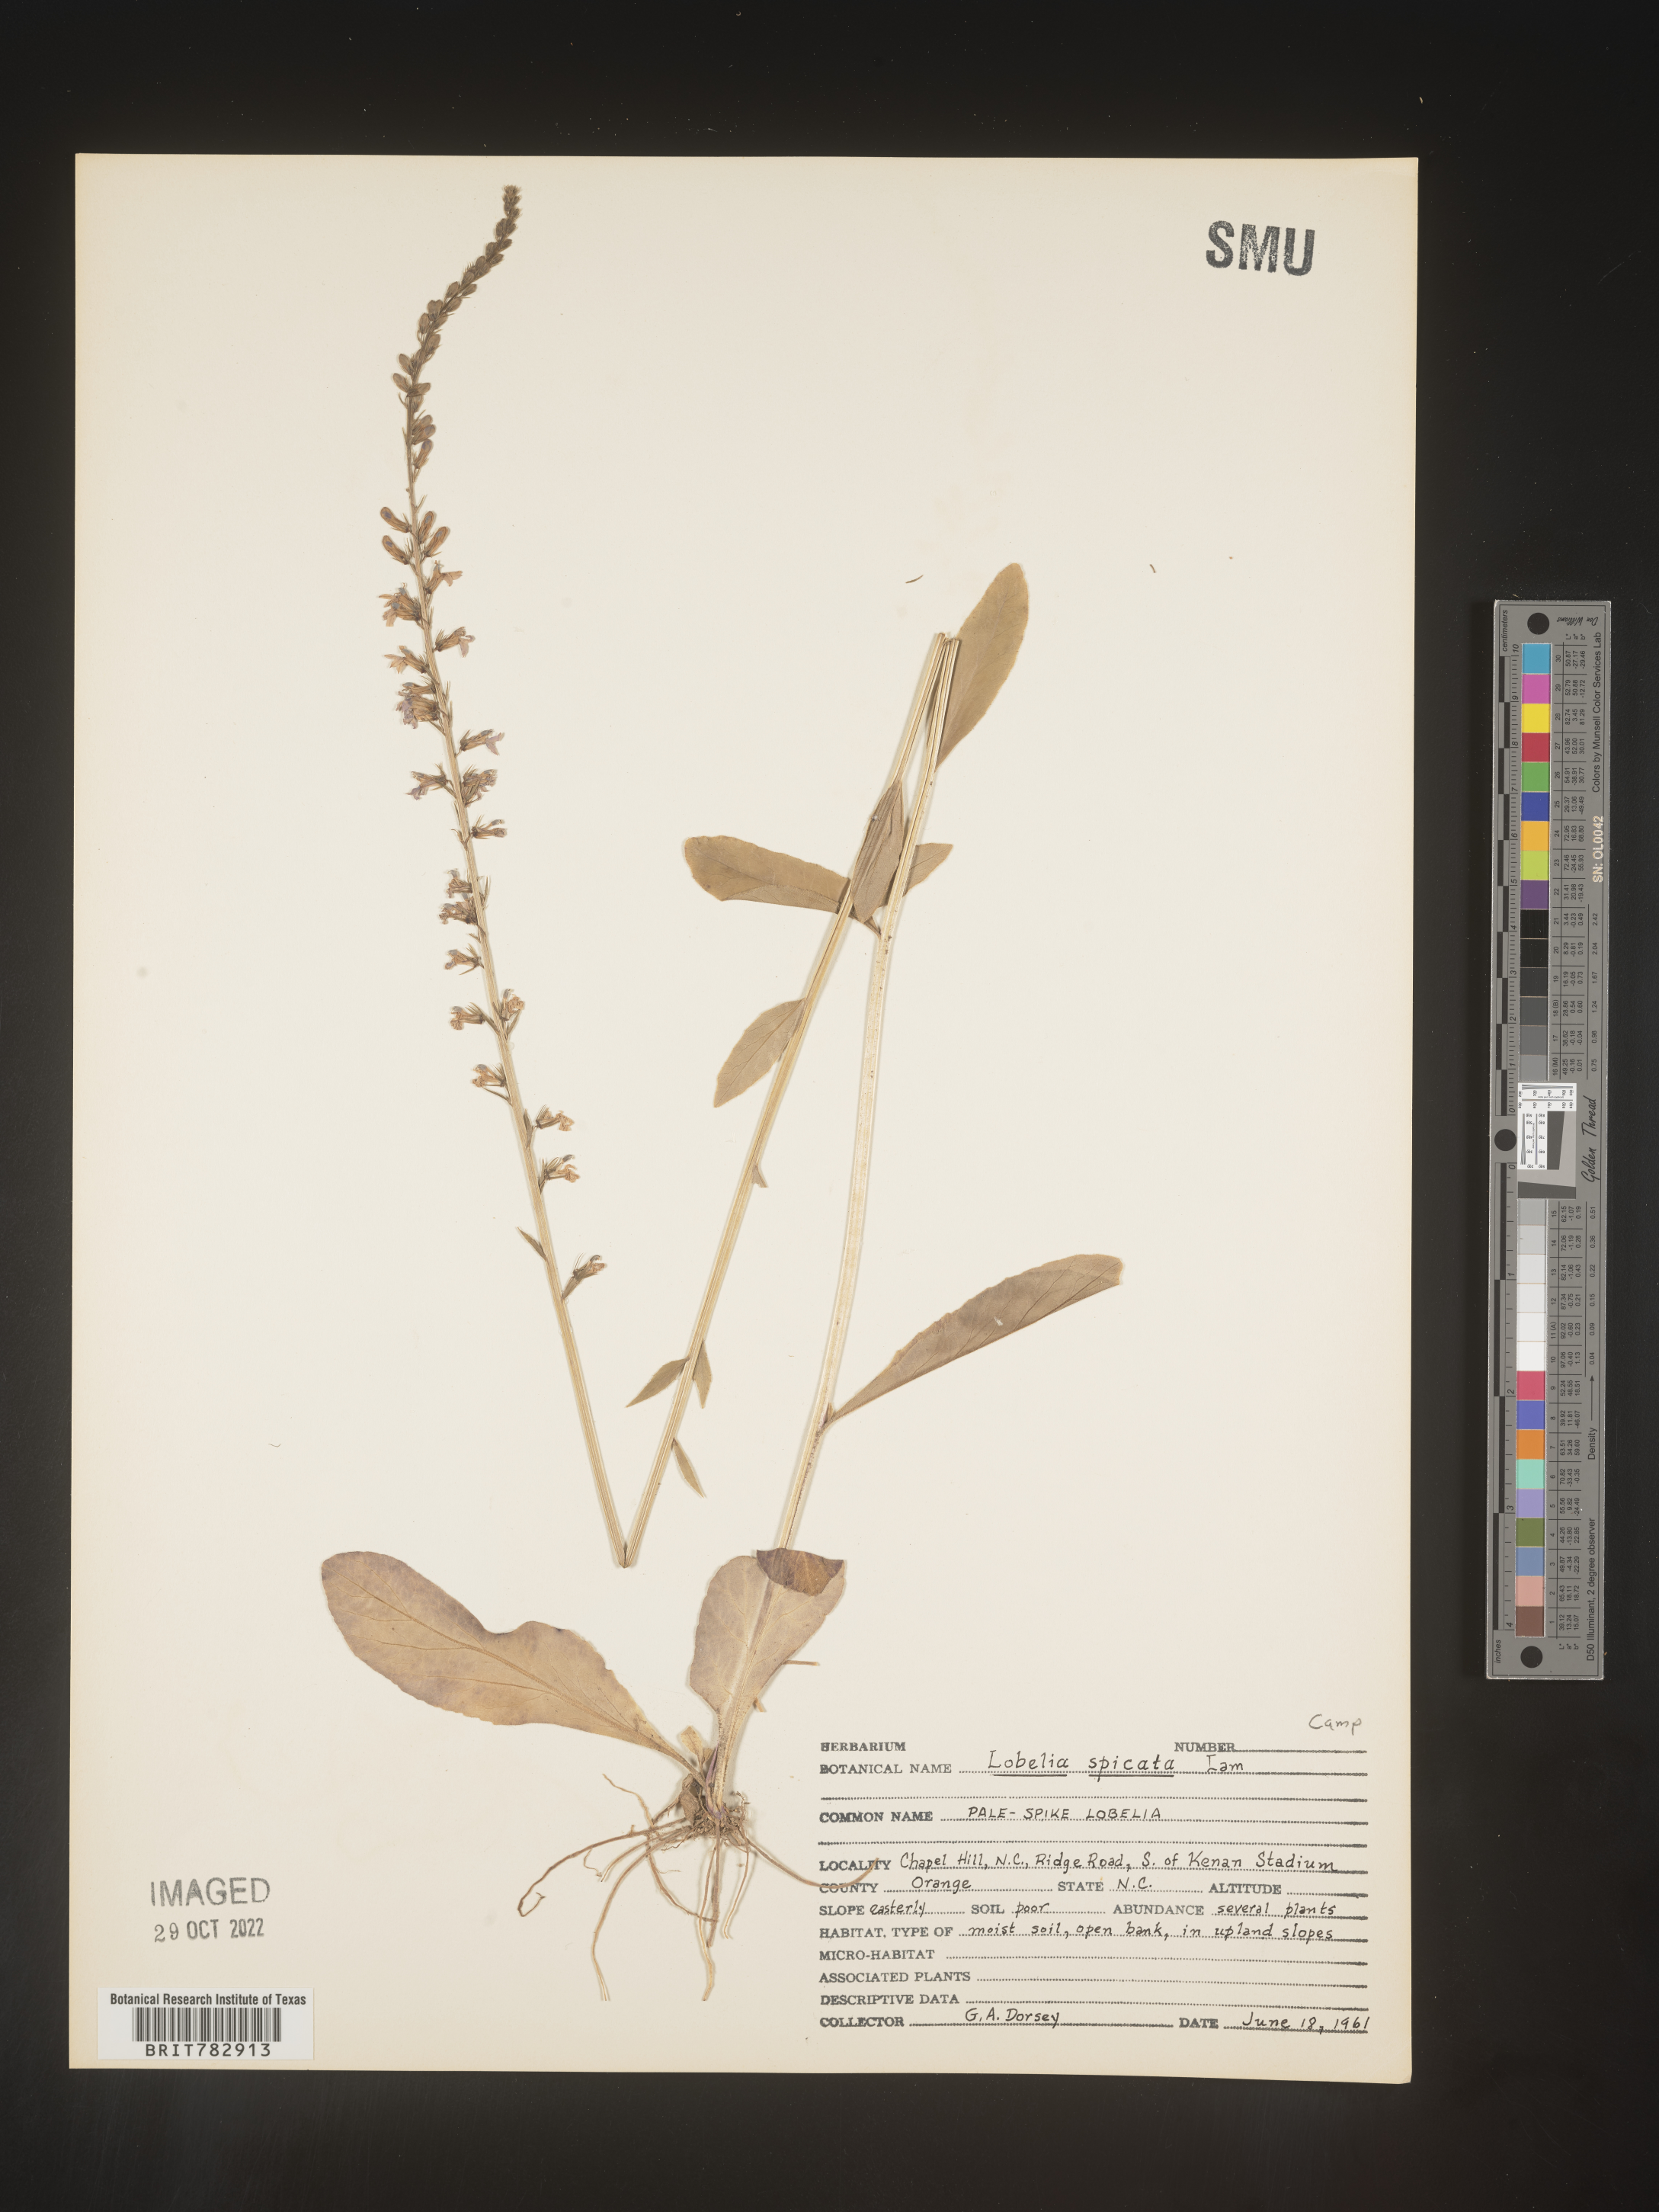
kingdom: Plantae
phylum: Tracheophyta
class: Magnoliopsida
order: Asterales
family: Campanulaceae
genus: Lobelia
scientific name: Lobelia spicata
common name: Pale-spike lobelia
